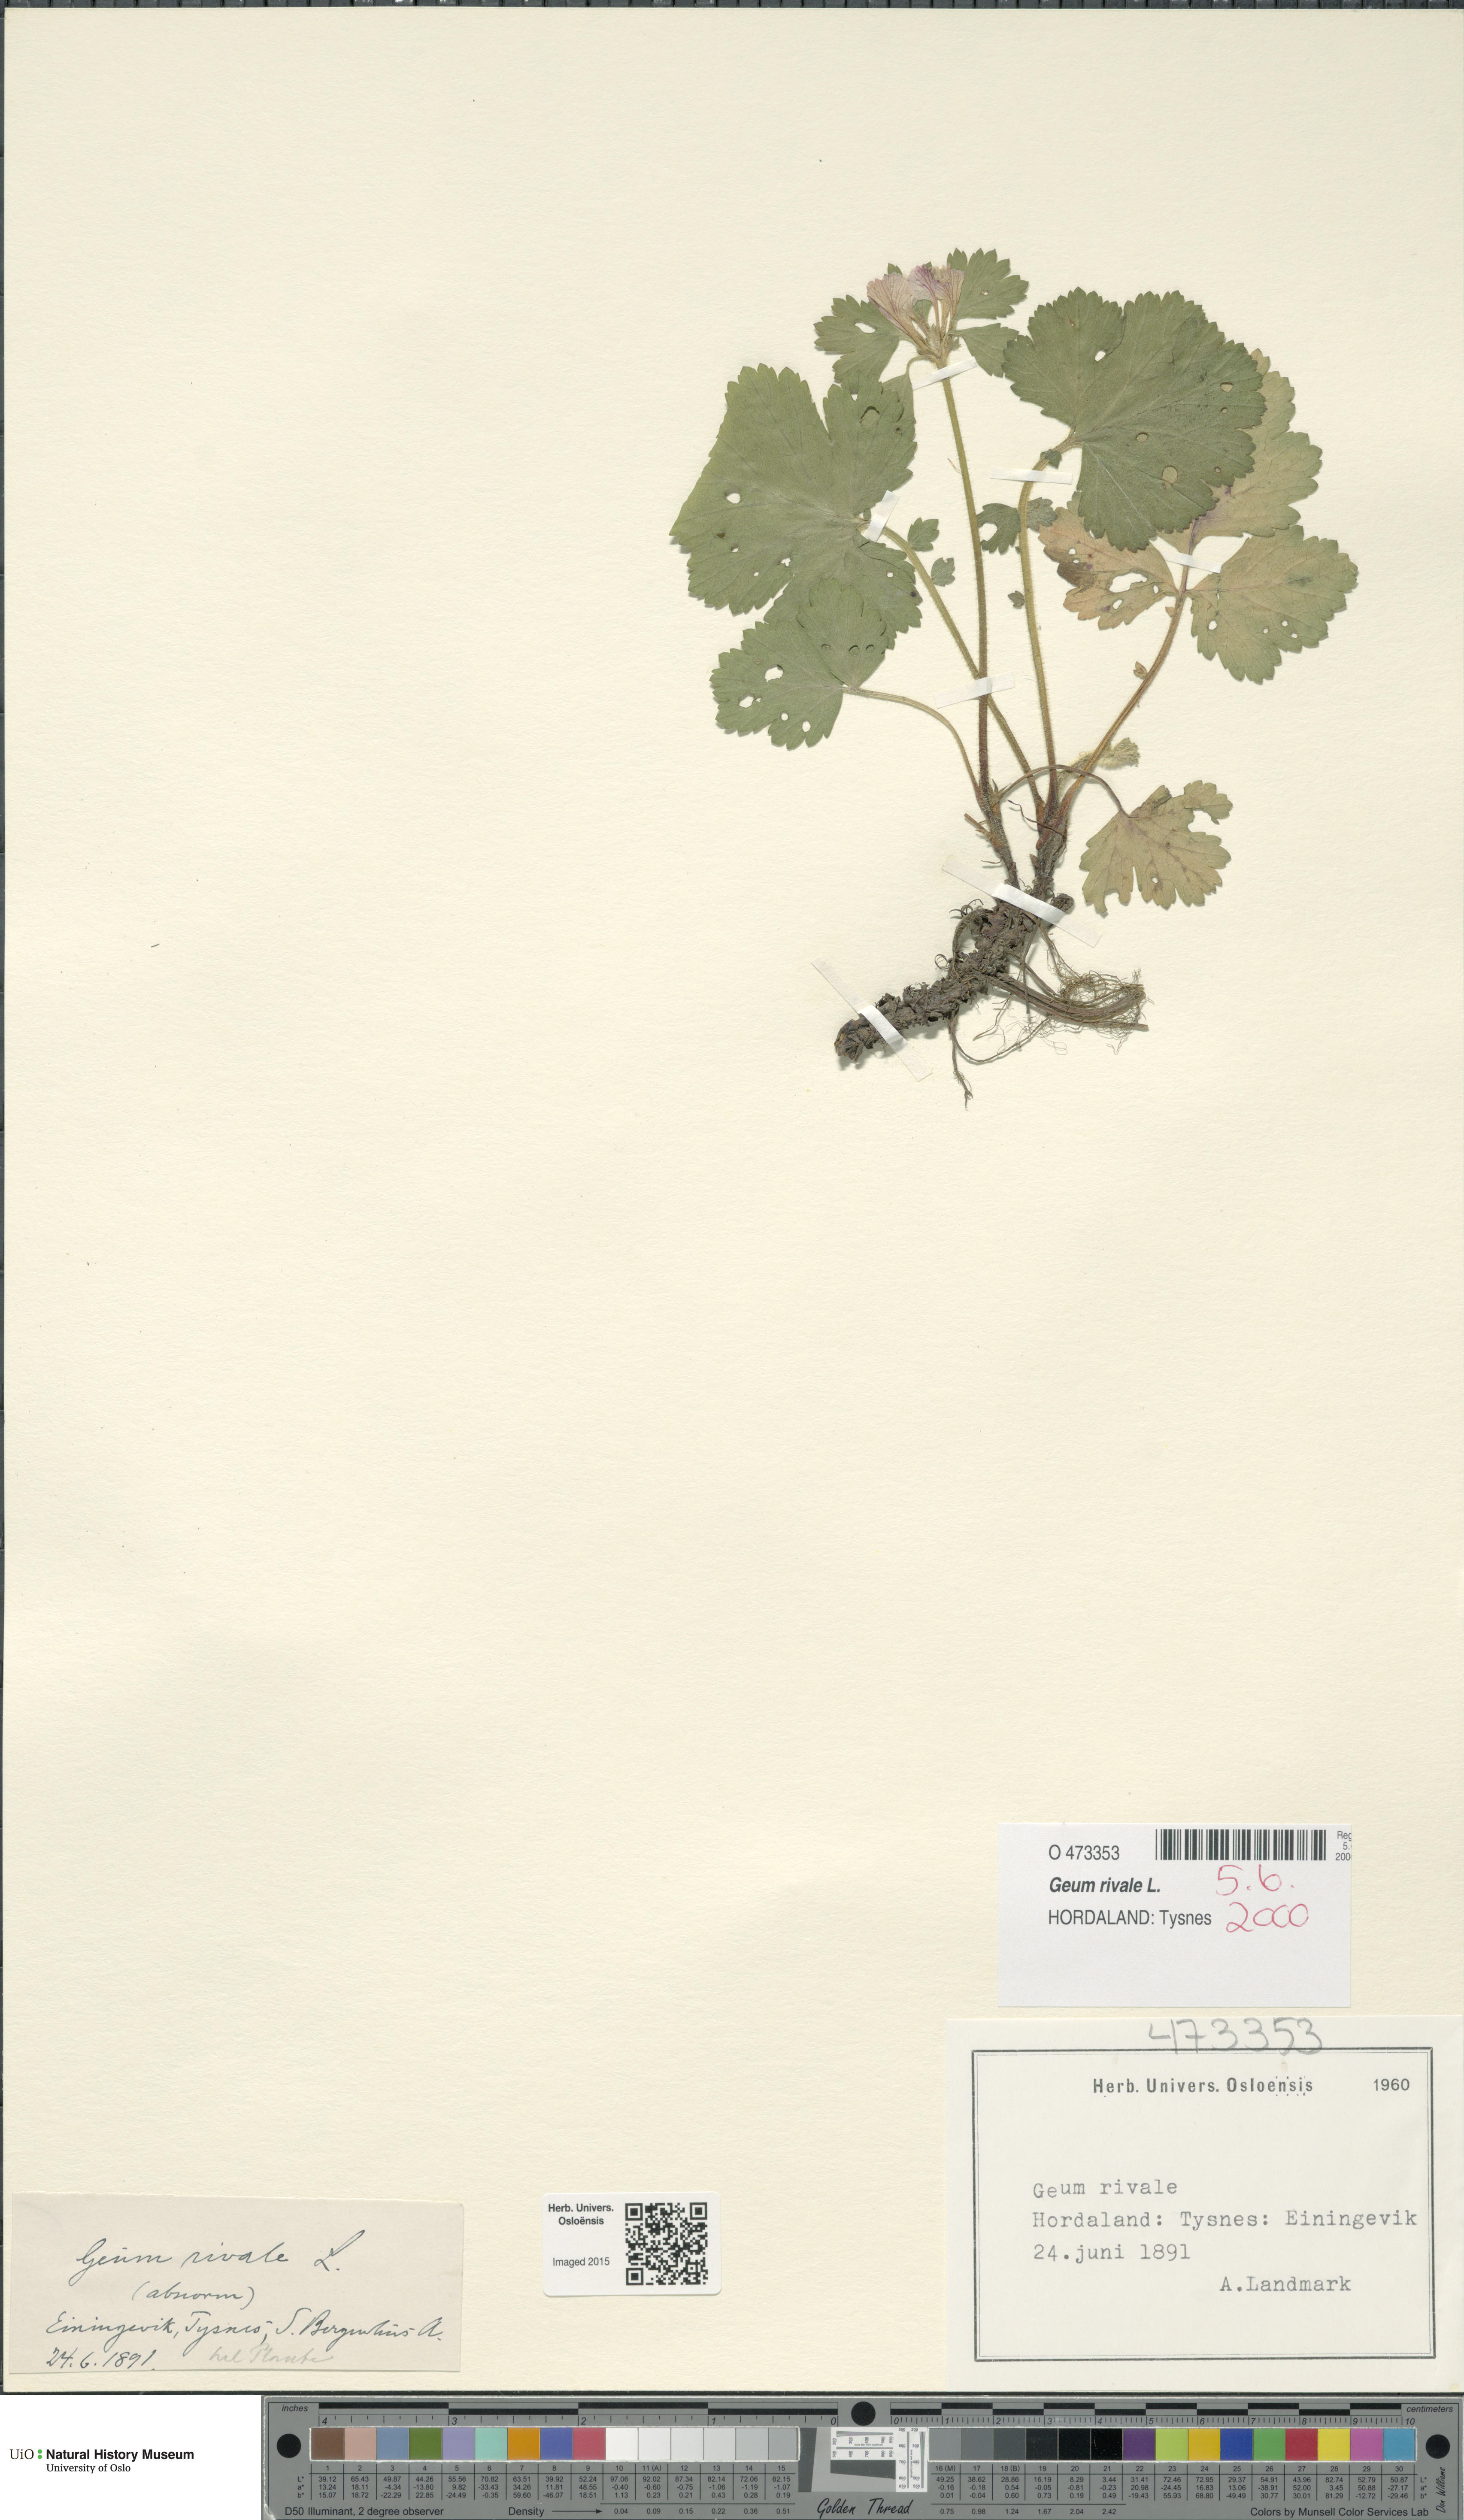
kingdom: Plantae
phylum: Tracheophyta
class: Magnoliopsida
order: Rosales
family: Rosaceae
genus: Geum
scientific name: Geum rivale
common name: Water avens
